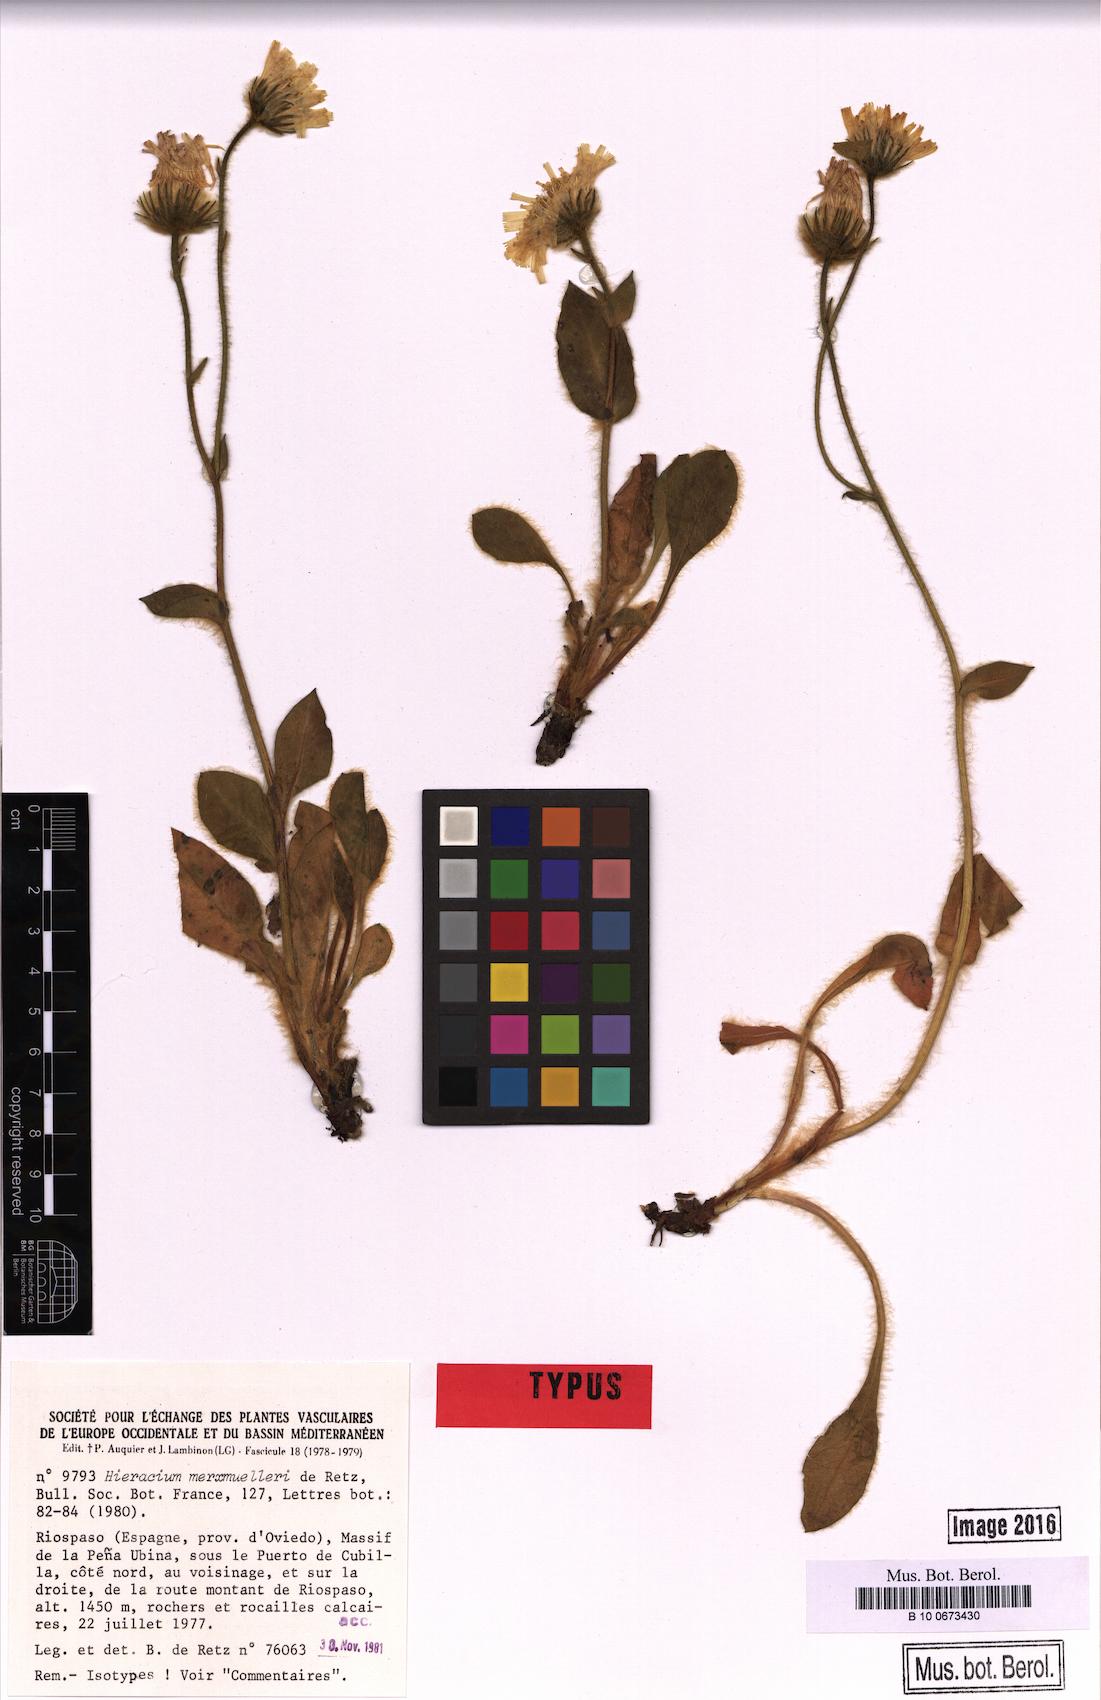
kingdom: Plantae
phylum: Tracheophyta
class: Magnoliopsida
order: Asterales
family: Asteraceae
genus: Hieracium
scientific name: Hieracium merxmuelleri
